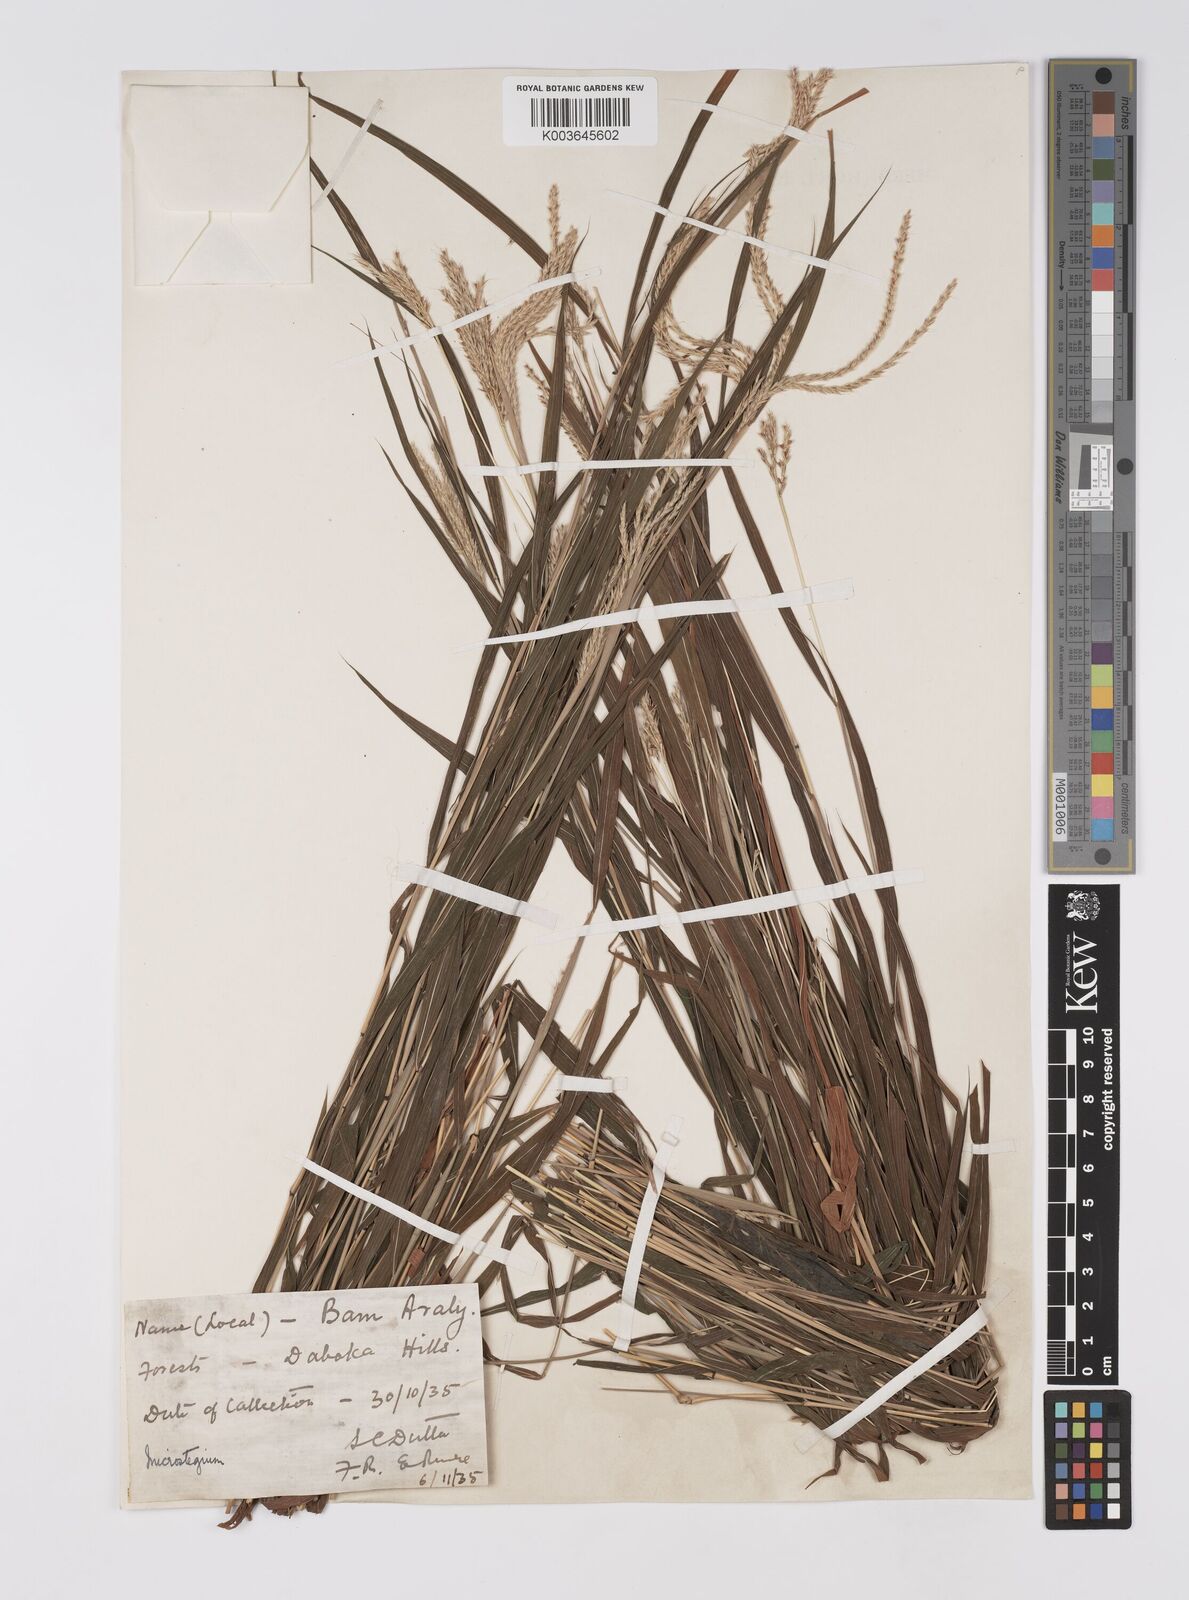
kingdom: Plantae
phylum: Tracheophyta
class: Liliopsida
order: Poales
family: Poaceae
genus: Microstegium
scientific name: Microstegium fasciculatum
